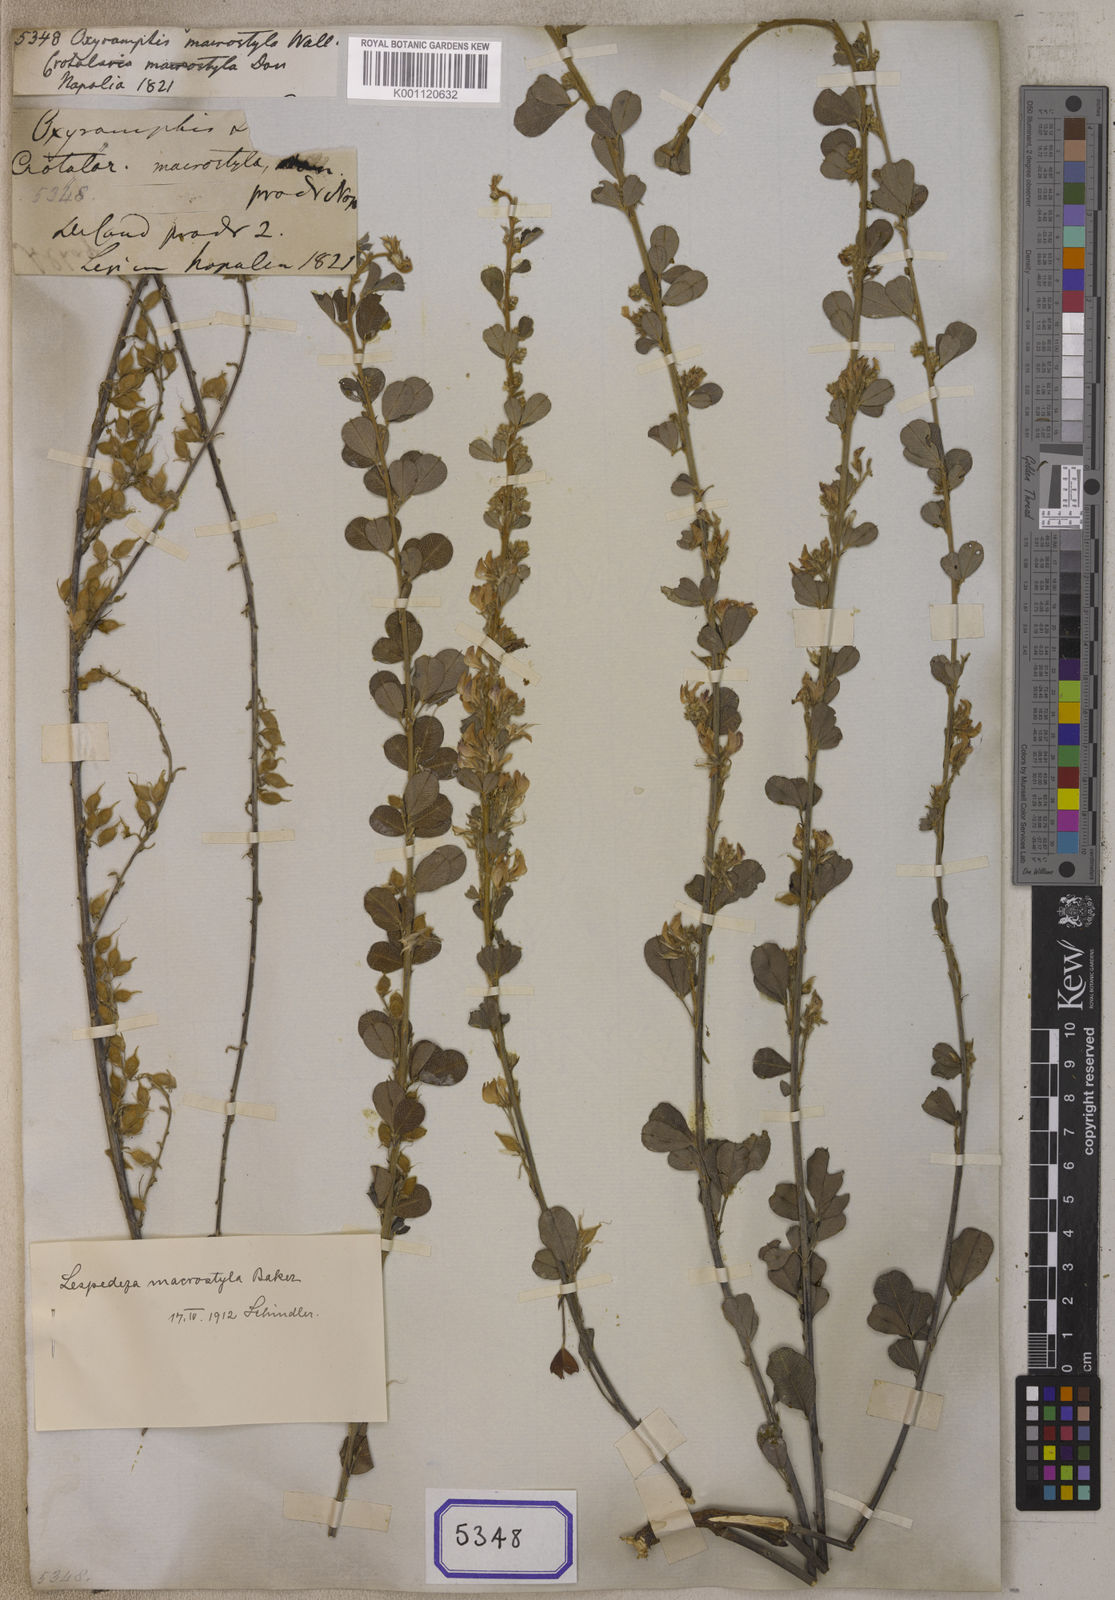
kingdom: Plantae
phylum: Tracheophyta
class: Magnoliopsida
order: Fabales
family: Fabaceae
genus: Oxyramphis
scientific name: Oxyramphis
